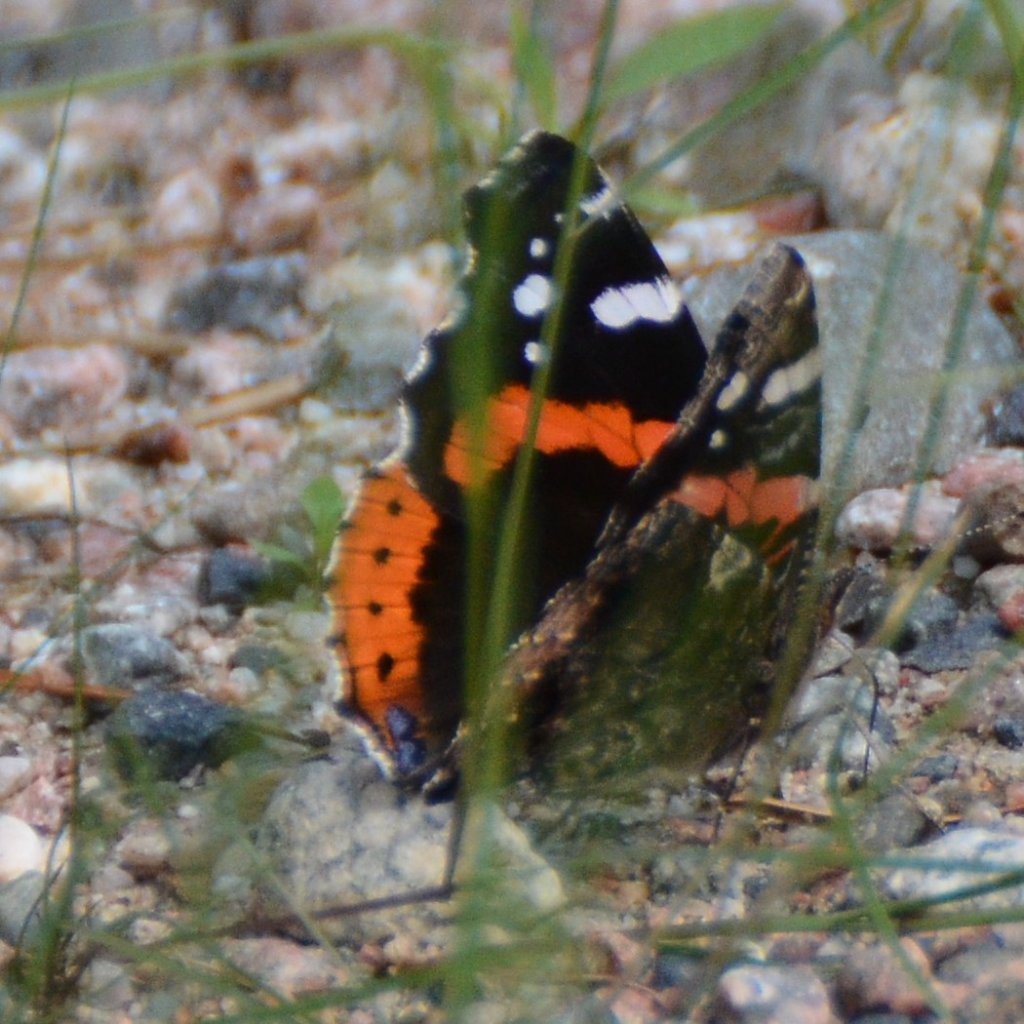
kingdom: Animalia
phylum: Arthropoda
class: Insecta
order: Lepidoptera
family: Nymphalidae
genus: Vanessa
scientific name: Vanessa atalanta
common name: Red Admiral
